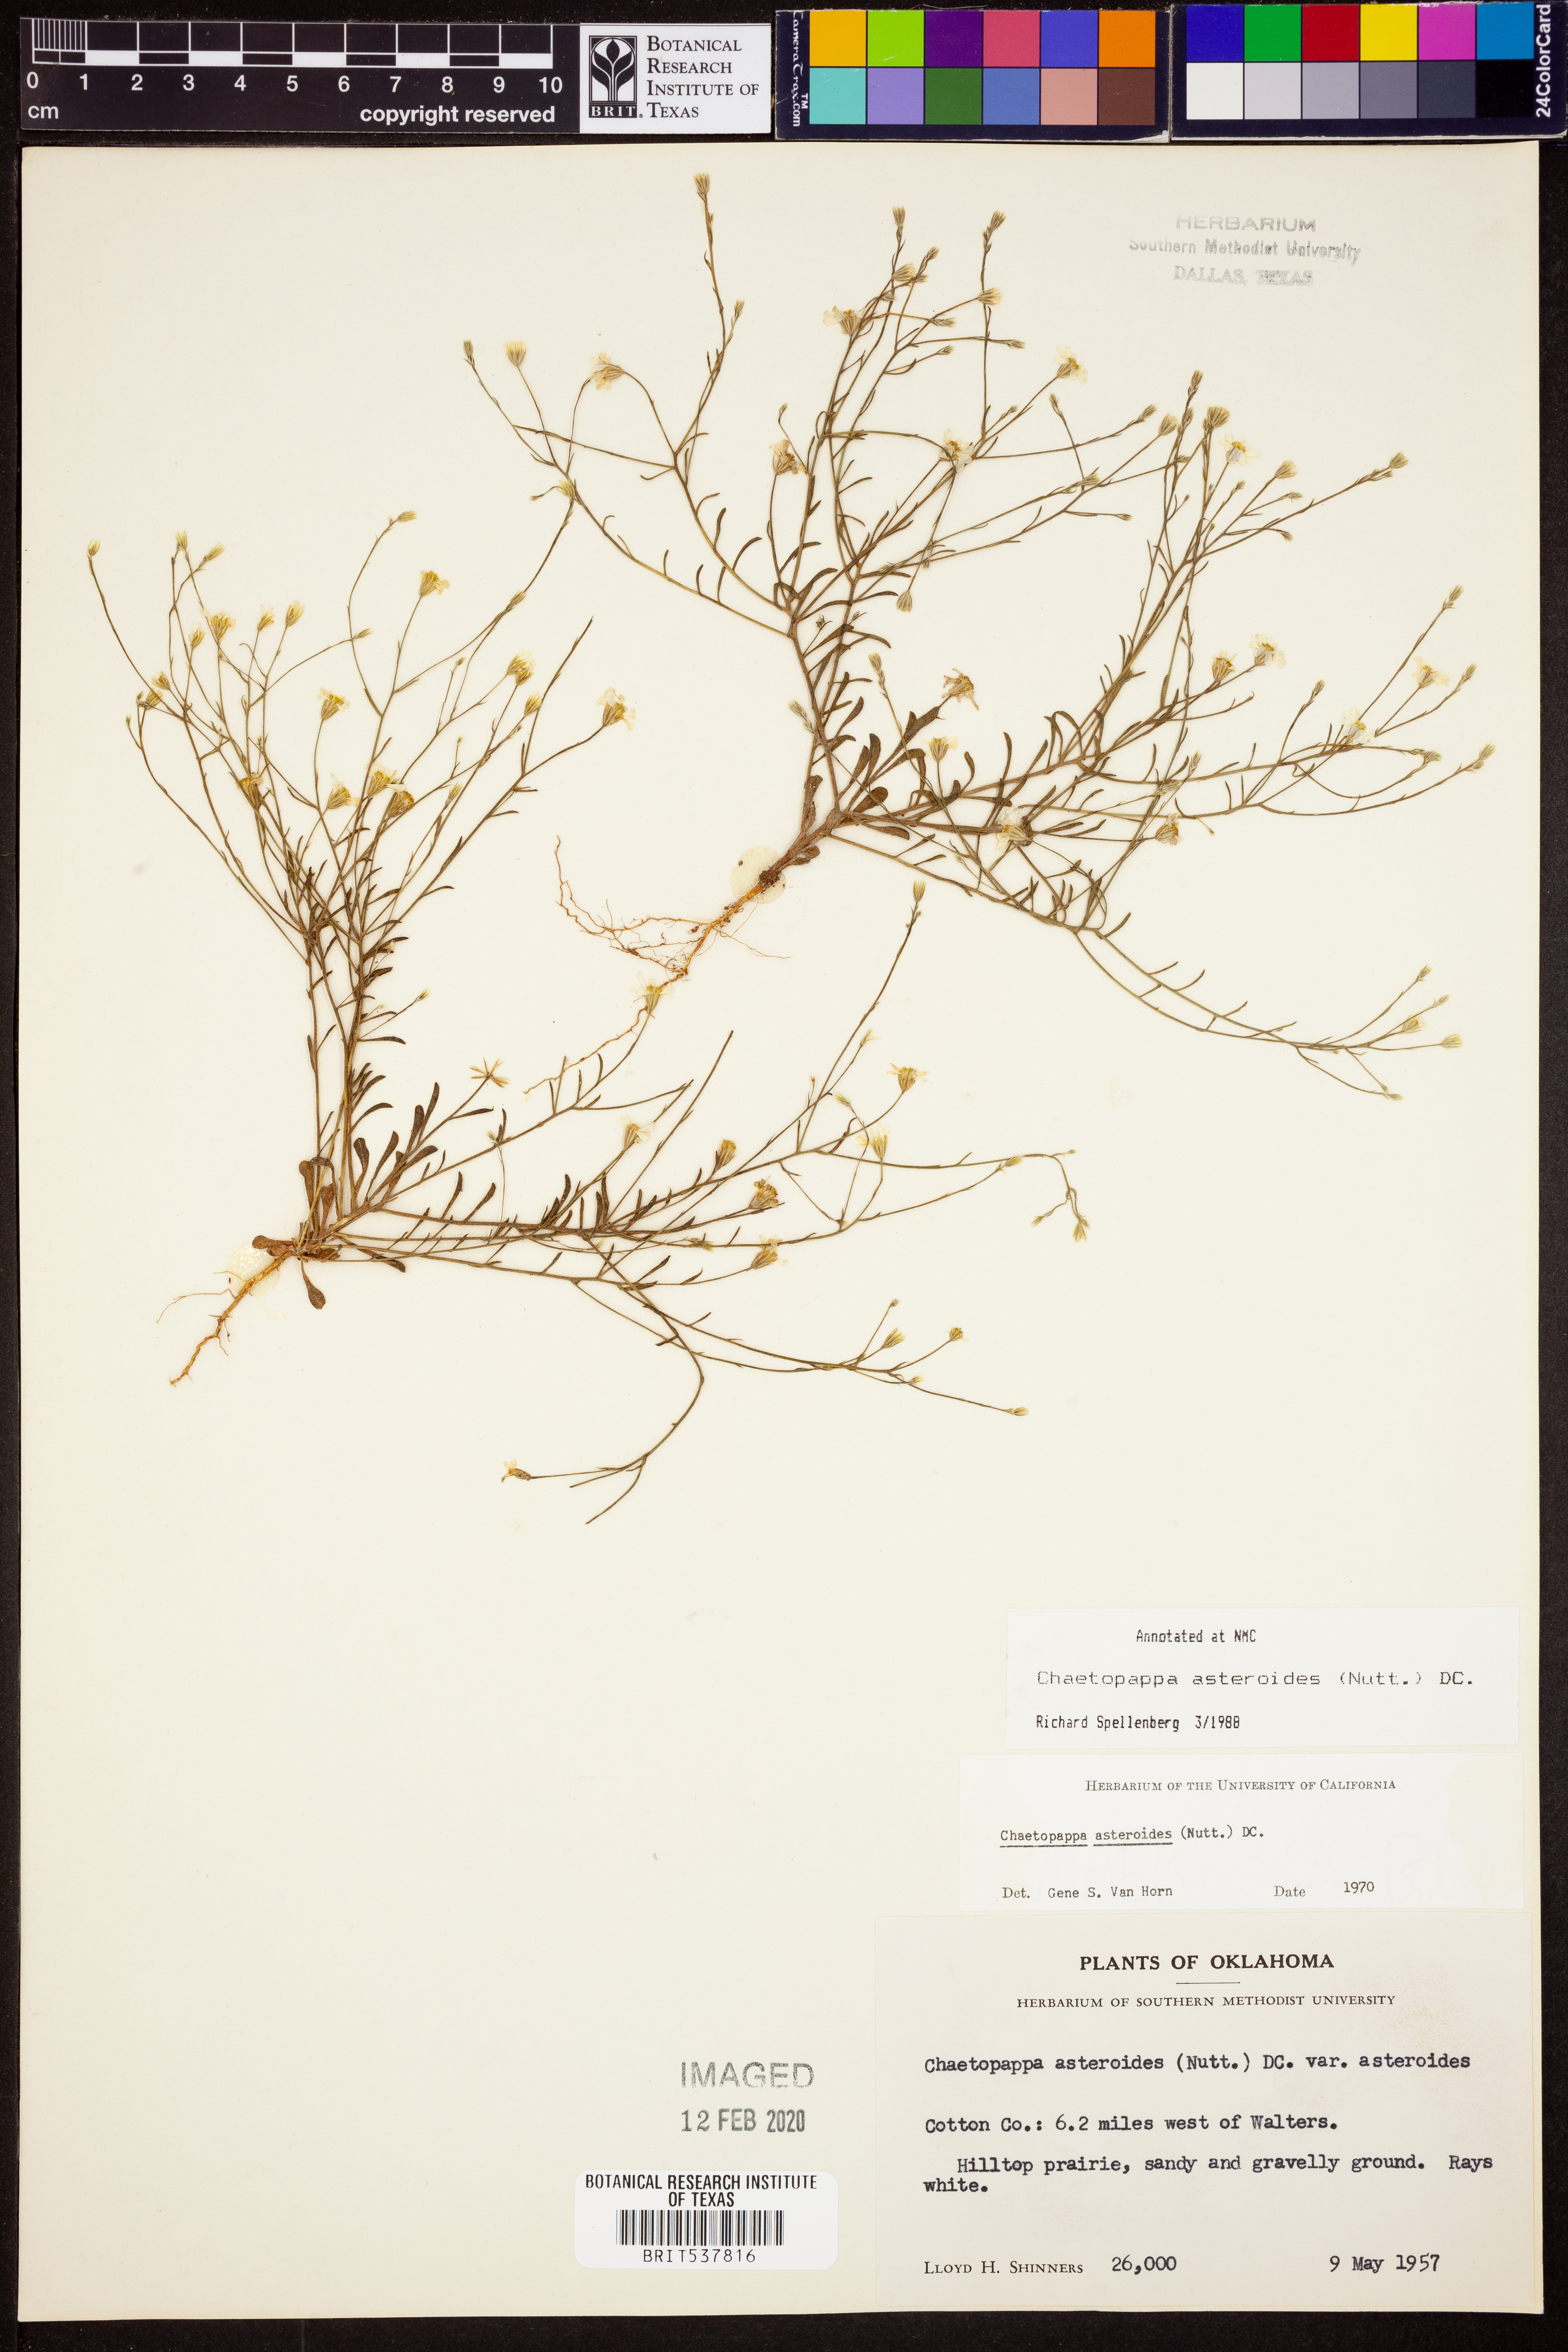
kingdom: Plantae
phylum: Tracheophyta
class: Magnoliopsida
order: Asterales
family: Asteraceae
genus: Chaetopappa
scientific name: Chaetopappa asteroides
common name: Tiny lazy daisy
